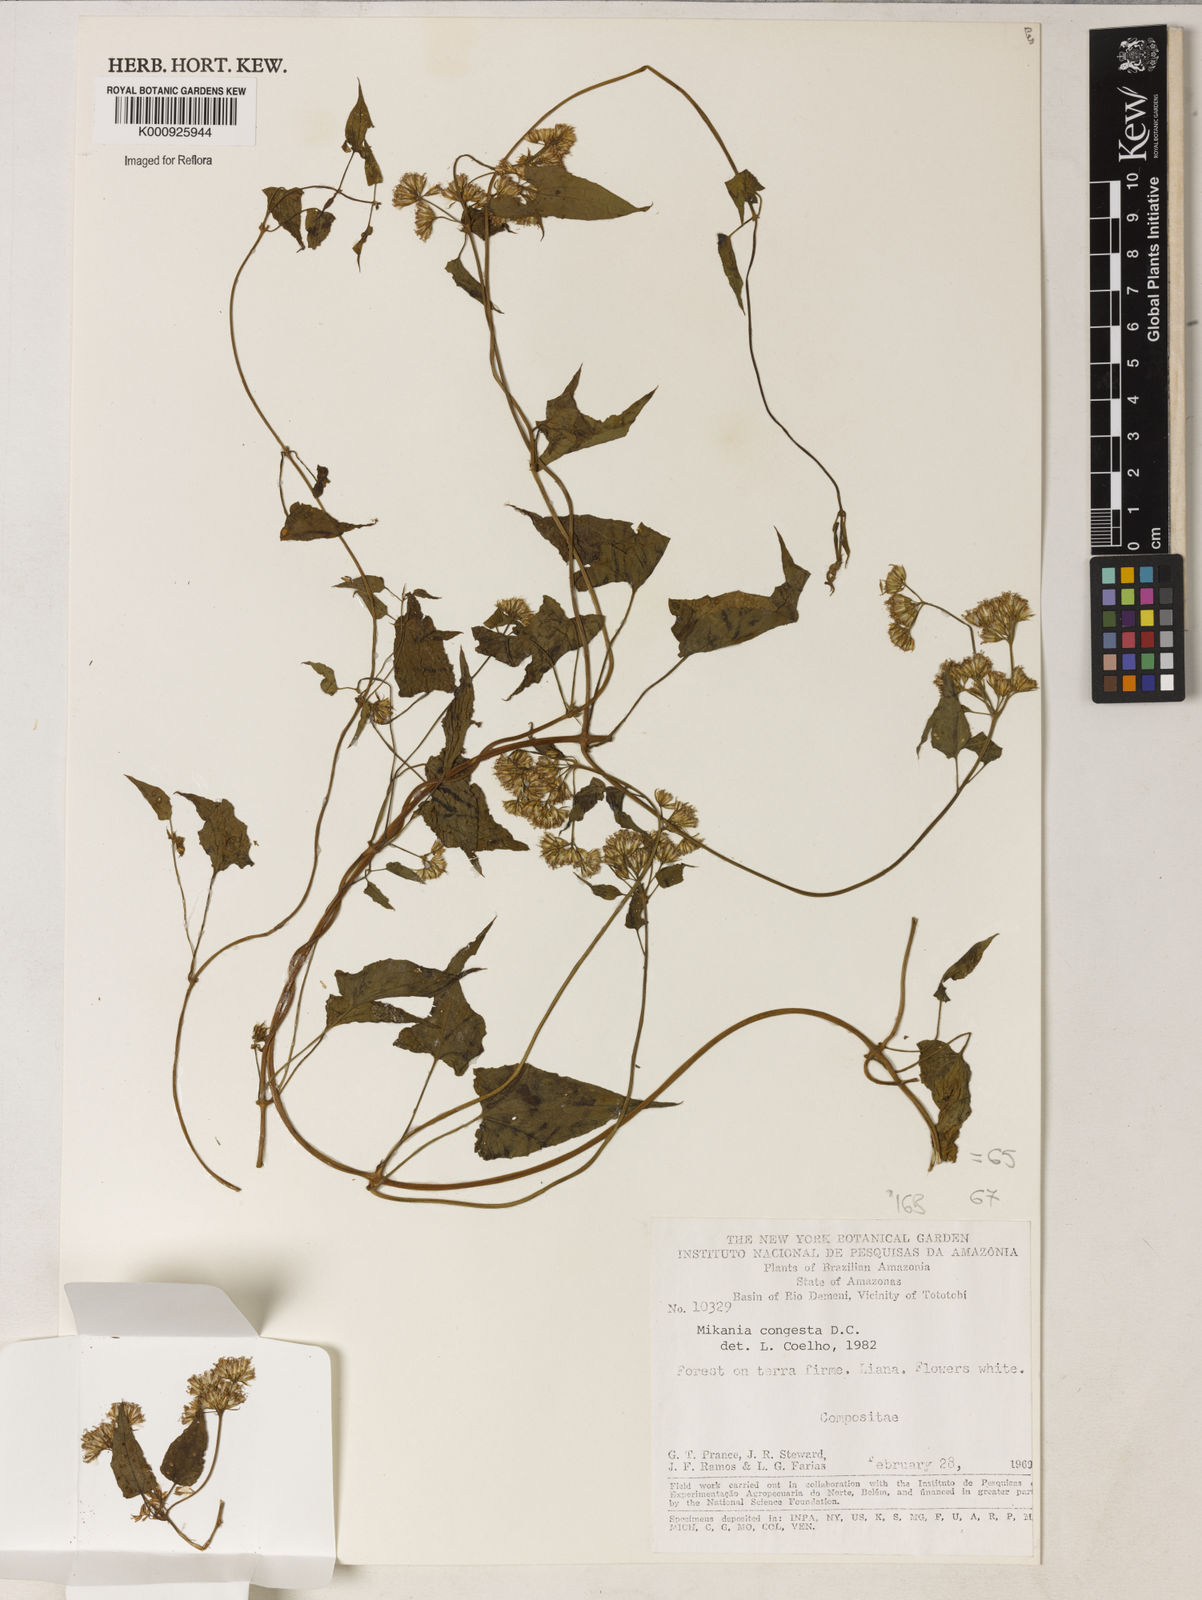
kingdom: Plantae
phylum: Tracheophyta
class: Magnoliopsida
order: Asterales
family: Asteraceae
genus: Mikania
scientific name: Mikania congesta
